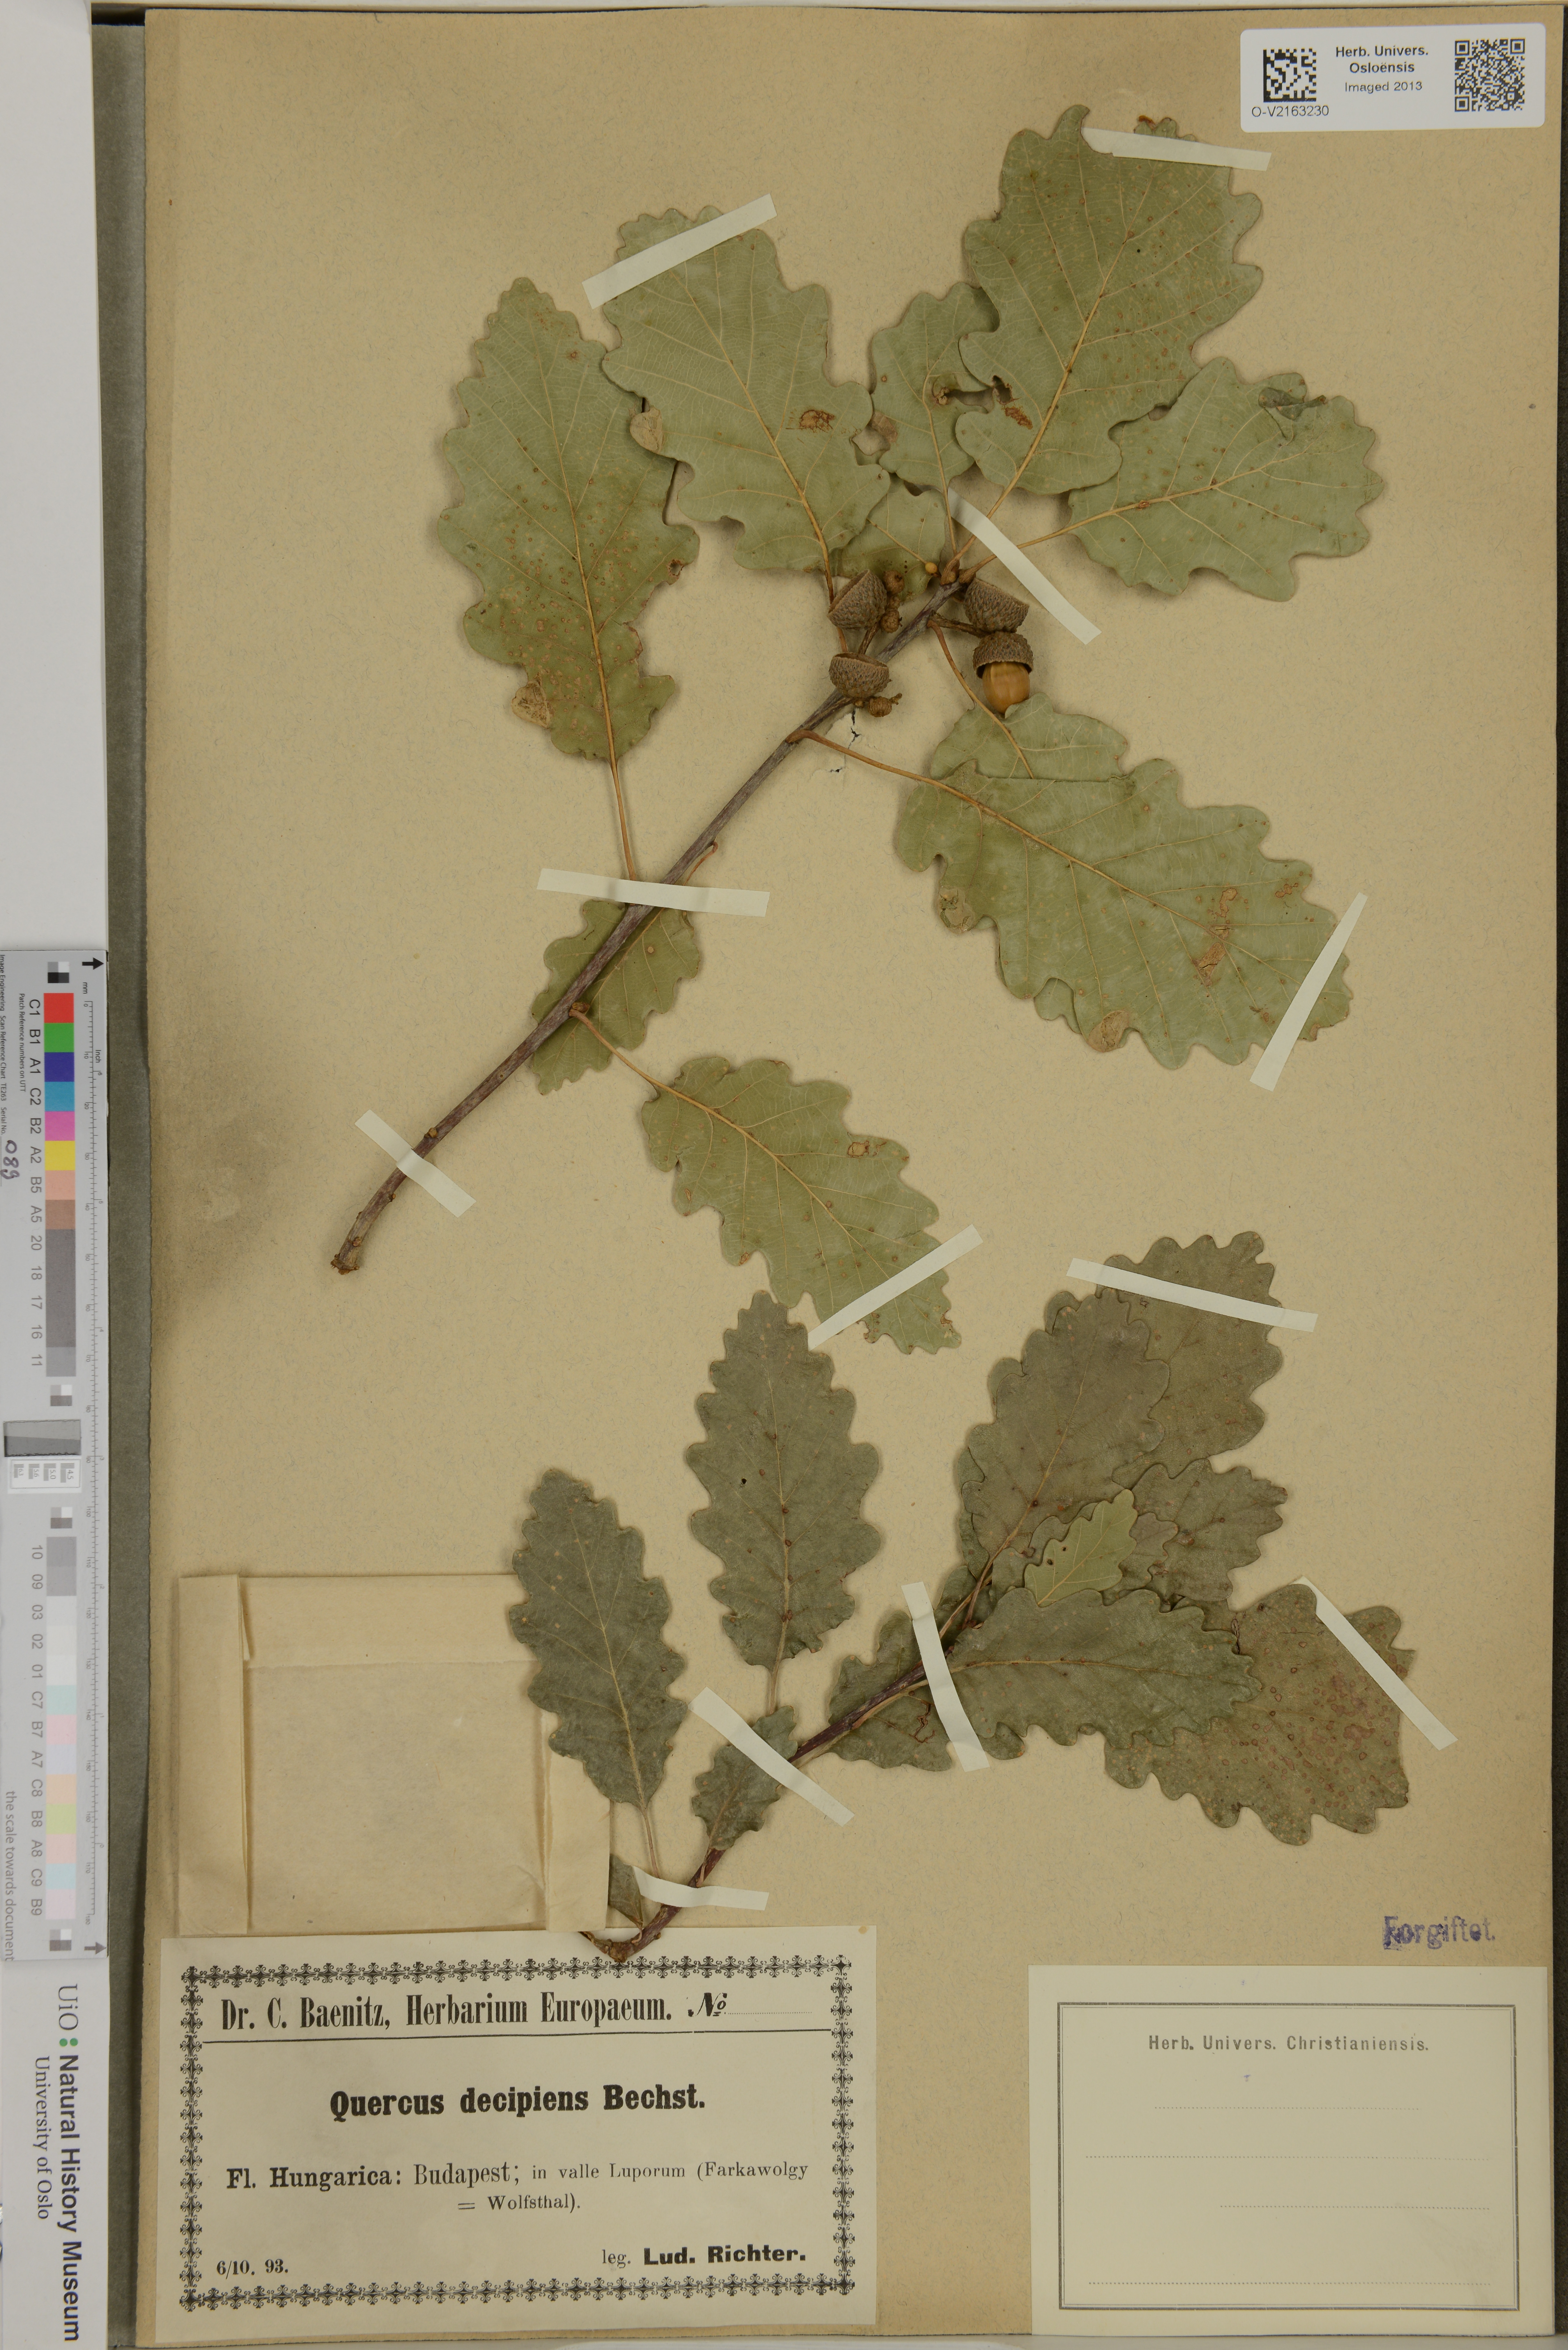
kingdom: Plantae
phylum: Tracheophyta
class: Magnoliopsida
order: Fagales
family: Fagaceae
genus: Quercus
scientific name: Quercus decipiens
